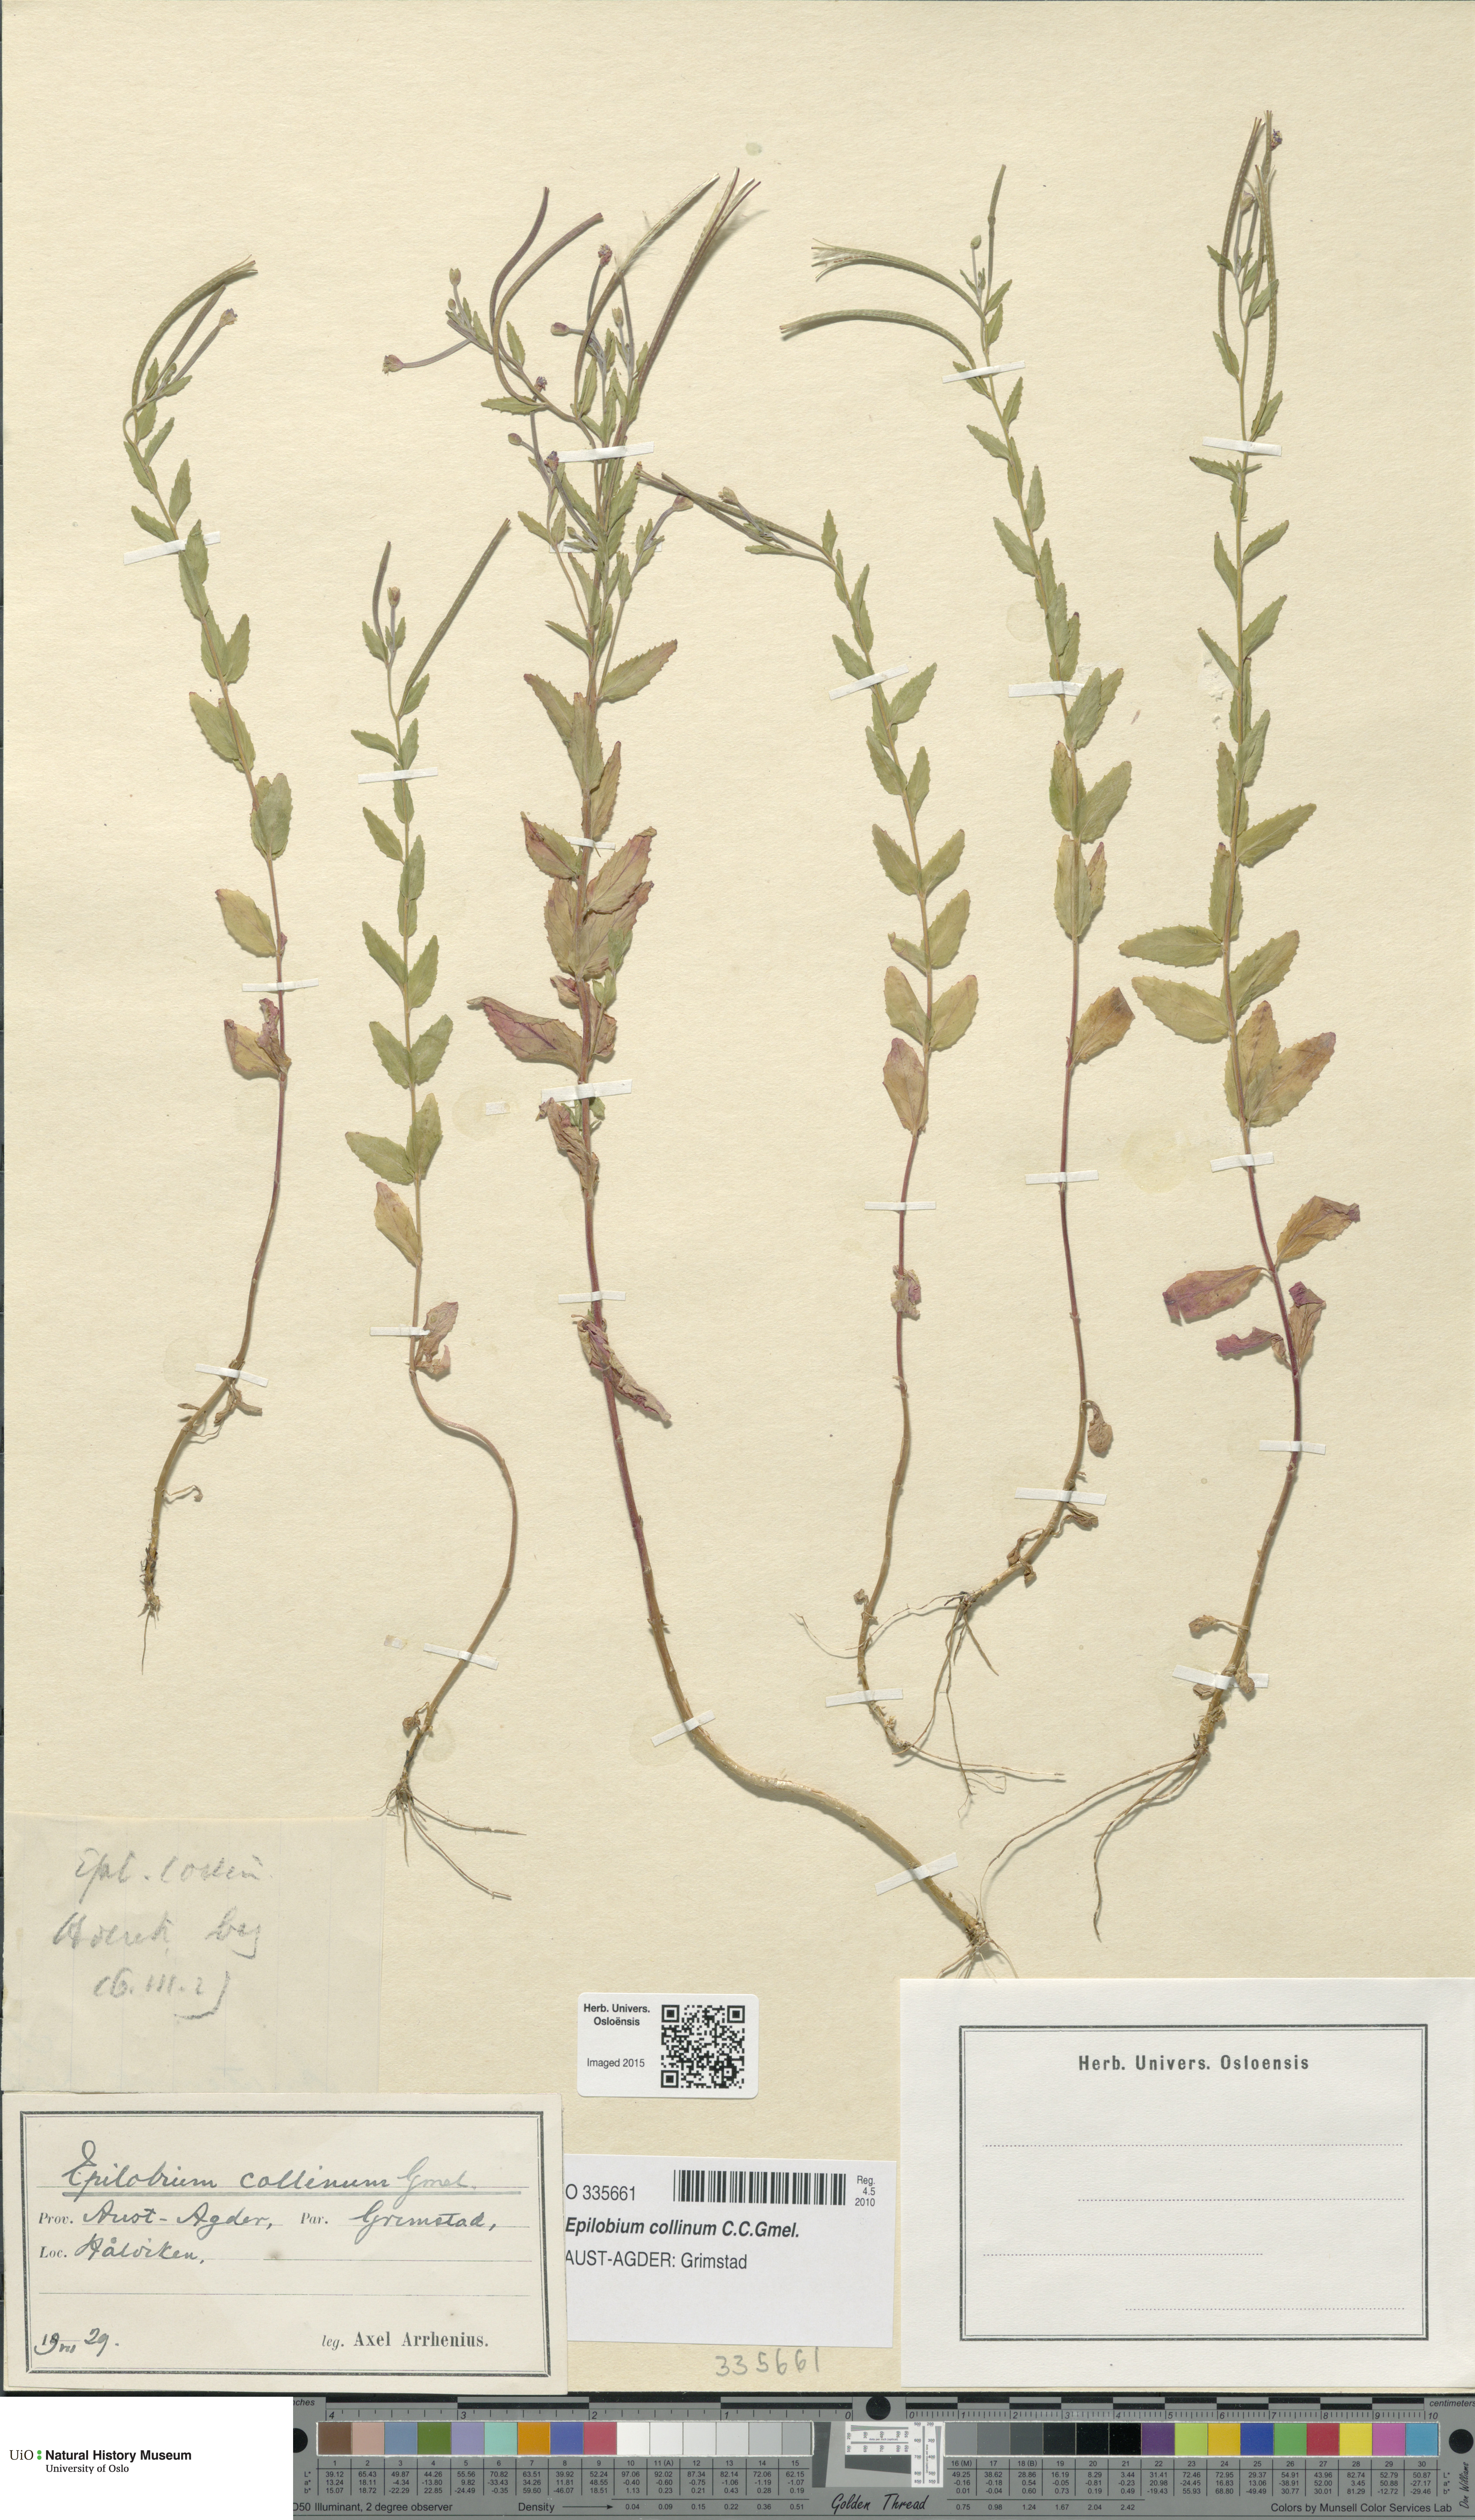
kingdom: Plantae
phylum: Tracheophyta
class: Magnoliopsida
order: Myrtales
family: Onagraceae
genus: Epilobium
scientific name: Epilobium collinum
